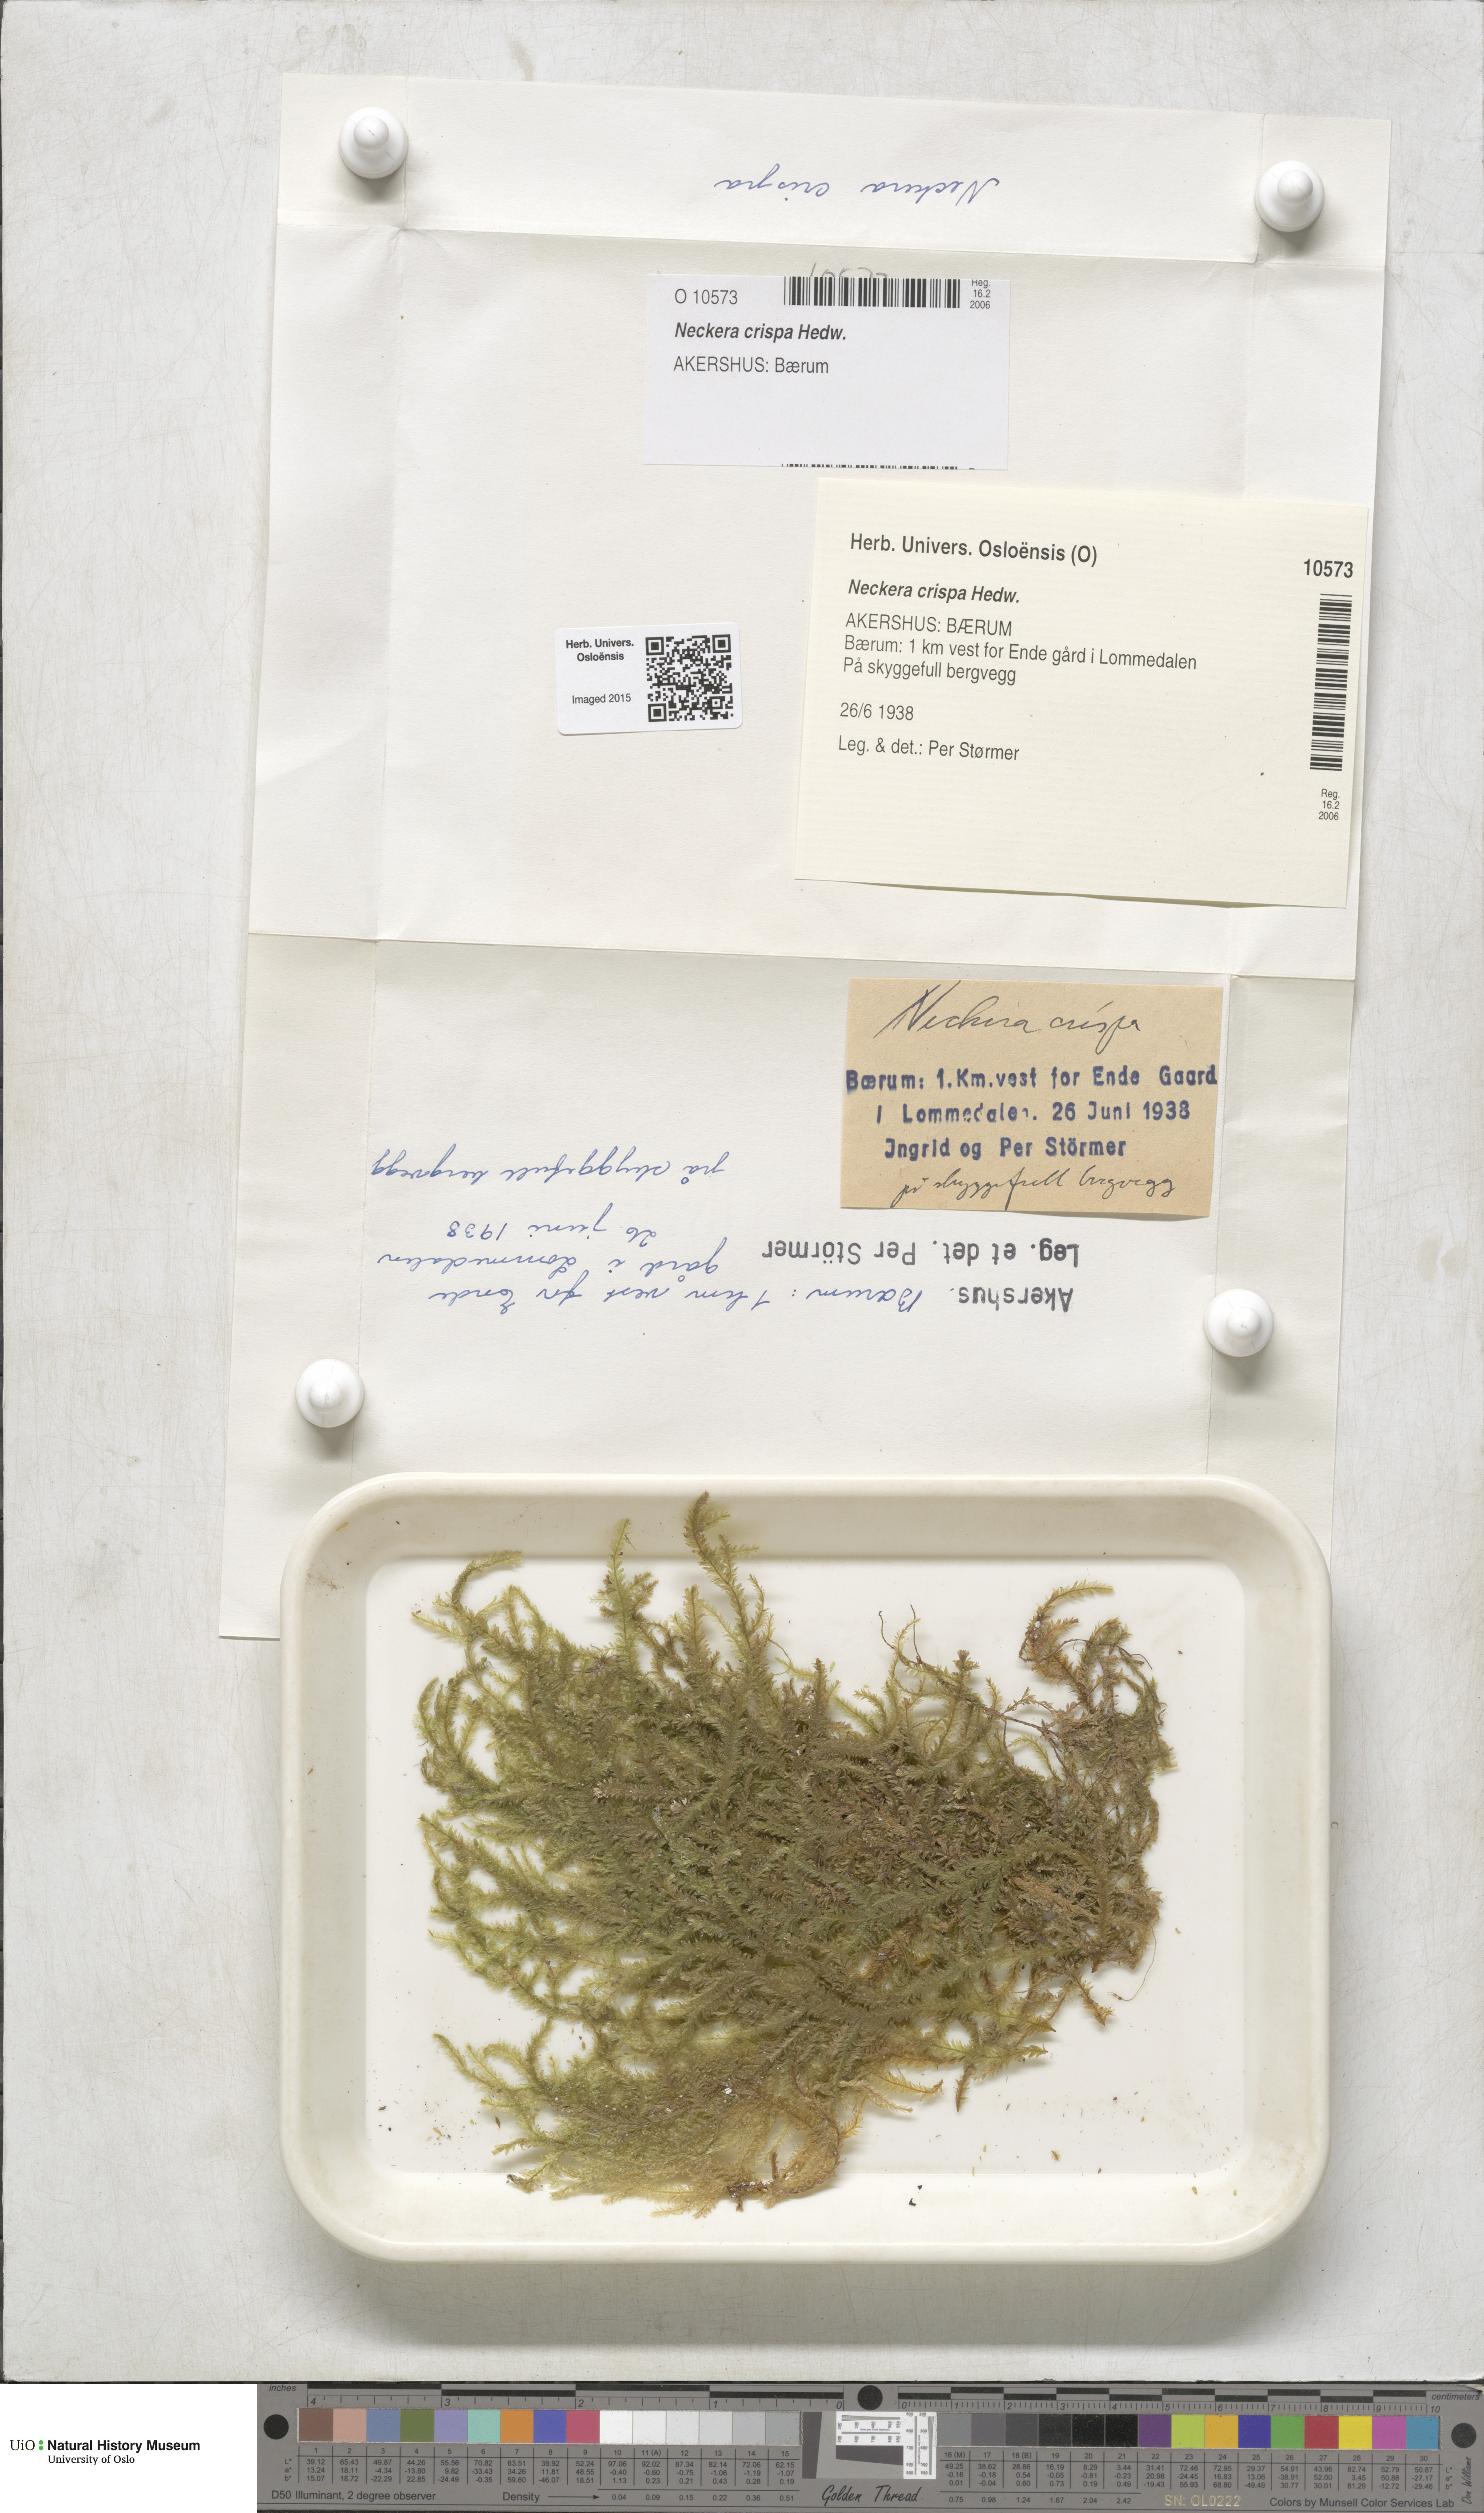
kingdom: Plantae
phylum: Bryophyta
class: Bryopsida
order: Hypnales
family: Neckeraceae
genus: Exsertotheca
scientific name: Exsertotheca crispa
